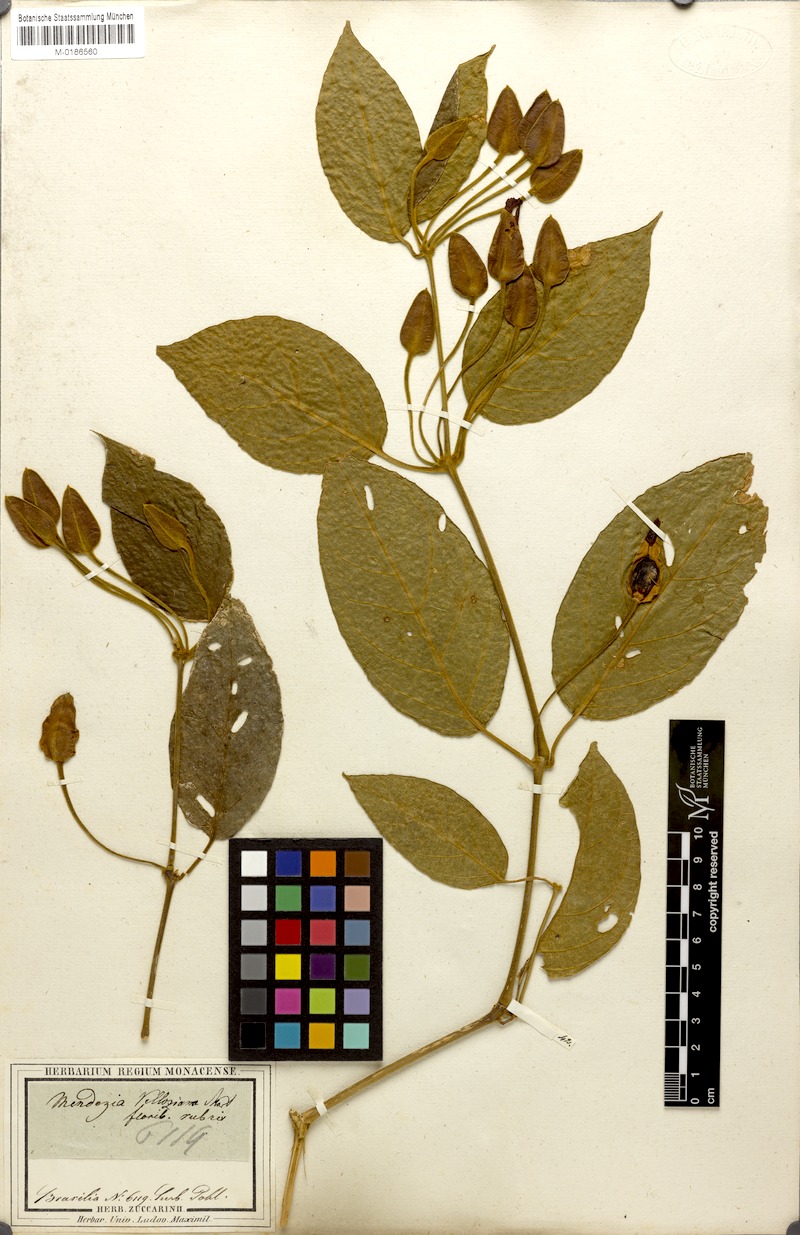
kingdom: Plantae
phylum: Tracheophyta
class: Magnoliopsida
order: Lamiales
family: Acanthaceae
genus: Mendoncia
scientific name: Mendoncia coccinea
